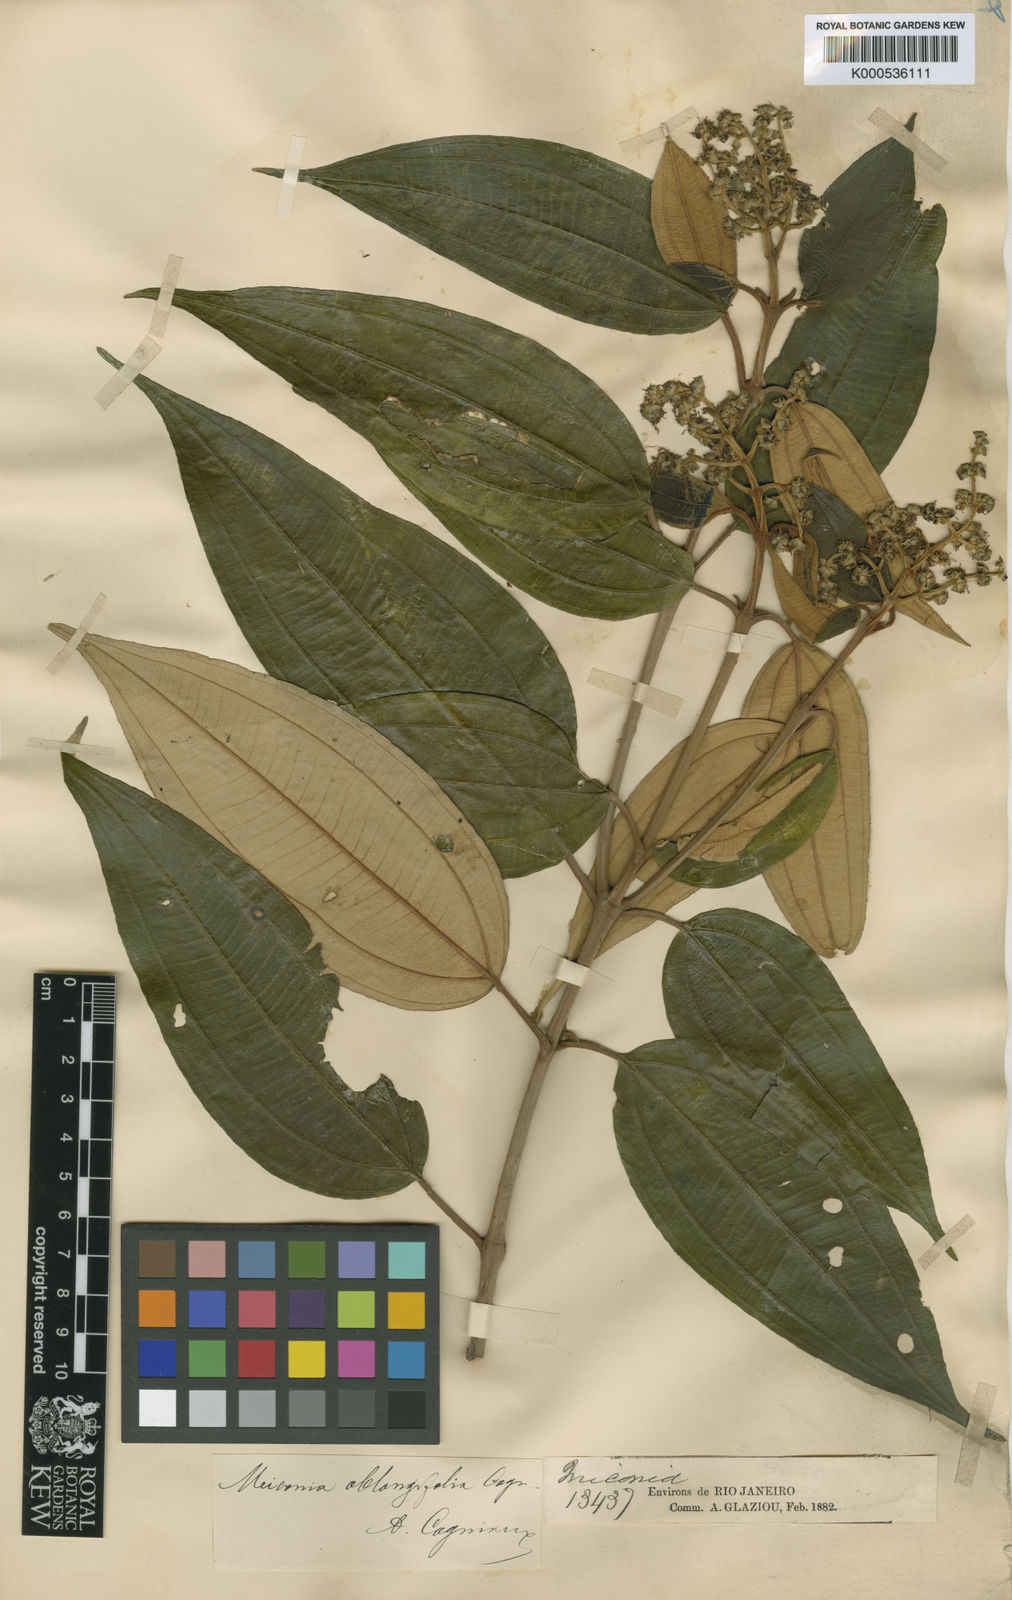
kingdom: Plantae
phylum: Tracheophyta
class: Magnoliopsida
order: Myrtales
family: Melastomataceae
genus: Miconia
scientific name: Miconia buddlejoides
